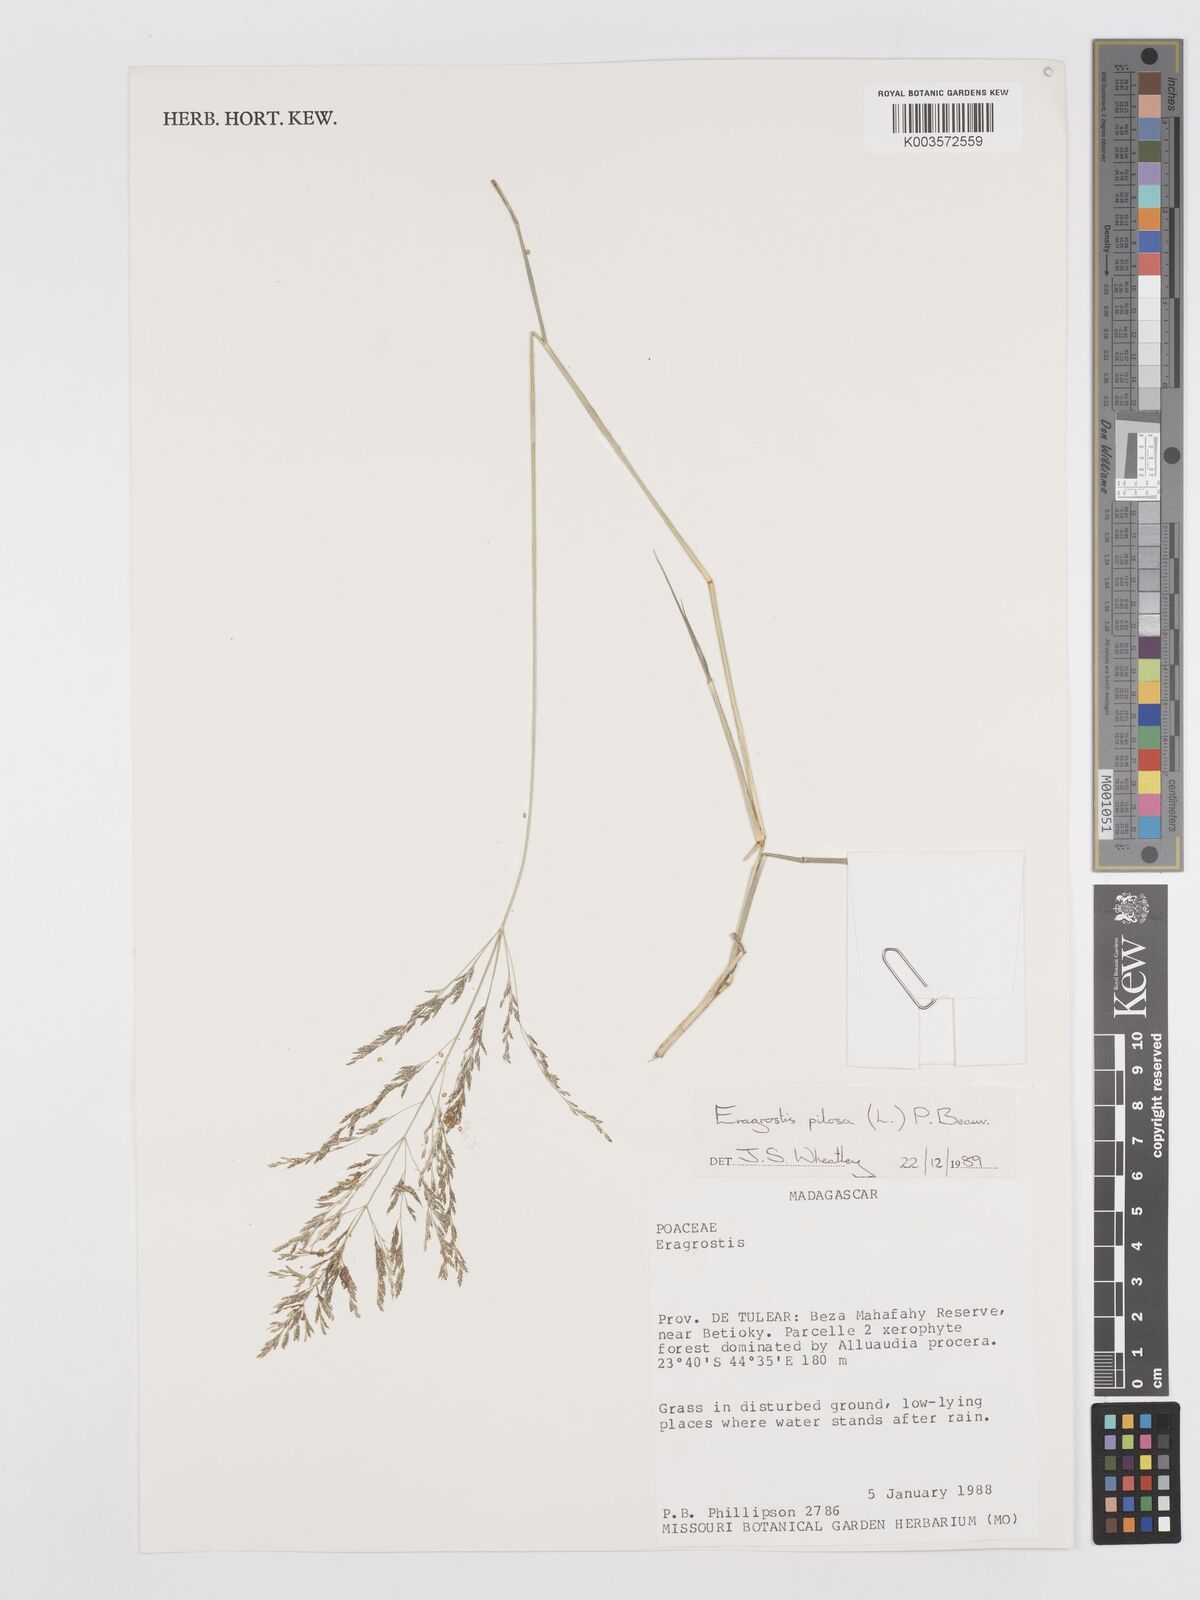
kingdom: Plantae
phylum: Tracheophyta
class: Liliopsida
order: Poales
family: Poaceae
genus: Eragrostis
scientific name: Eragrostis pilosa
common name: Indian lovegrass
